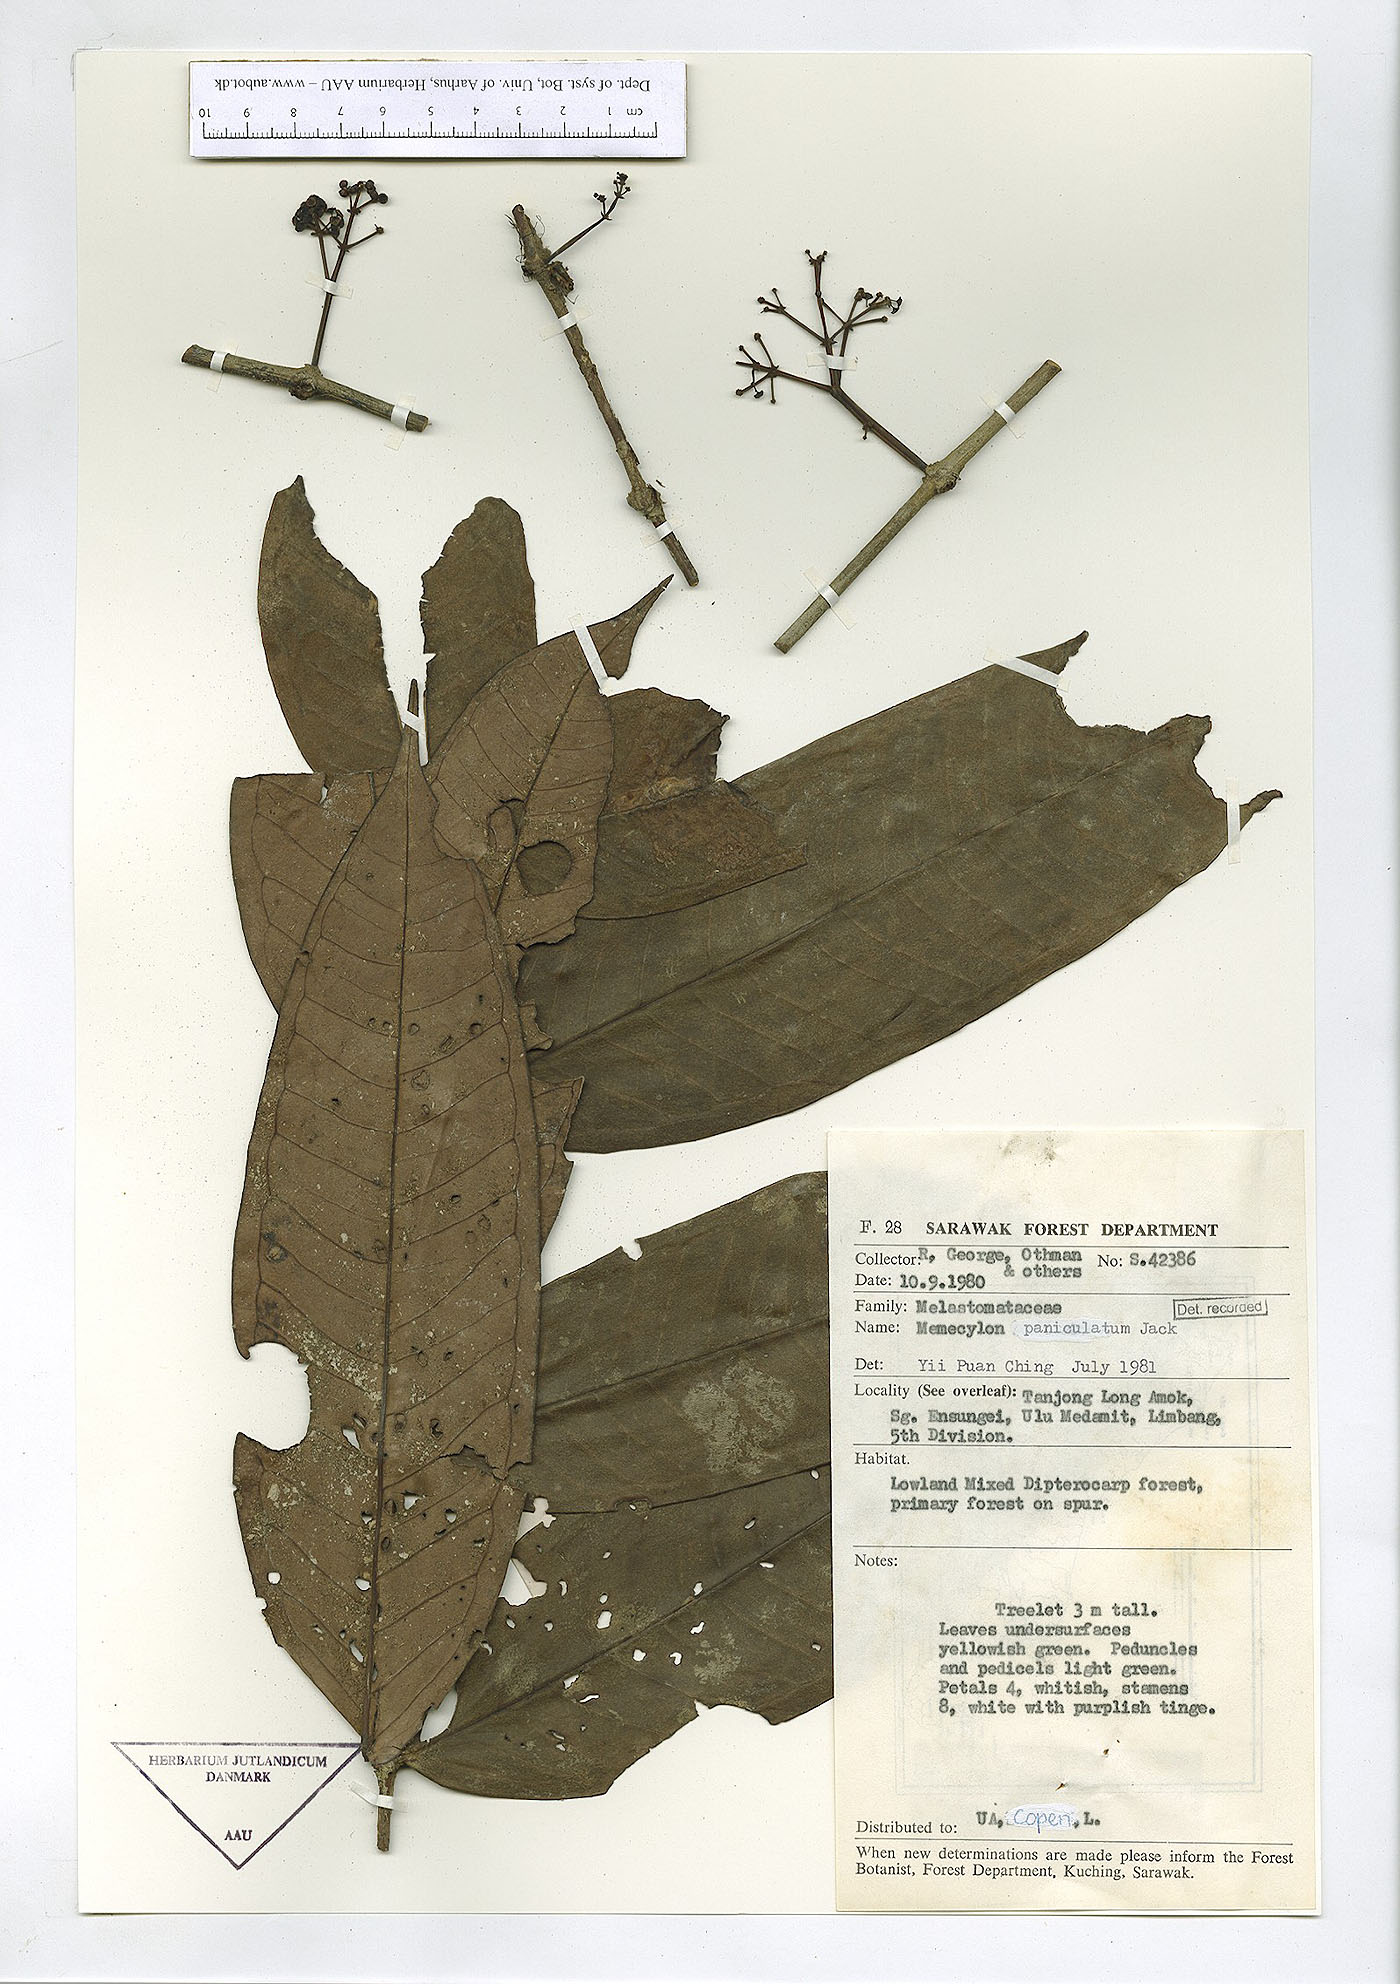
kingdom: Plantae
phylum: Tracheophyta
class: Magnoliopsida
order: Myrtales
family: Melastomataceae
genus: Memecylon
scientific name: Memecylon paniculatum
